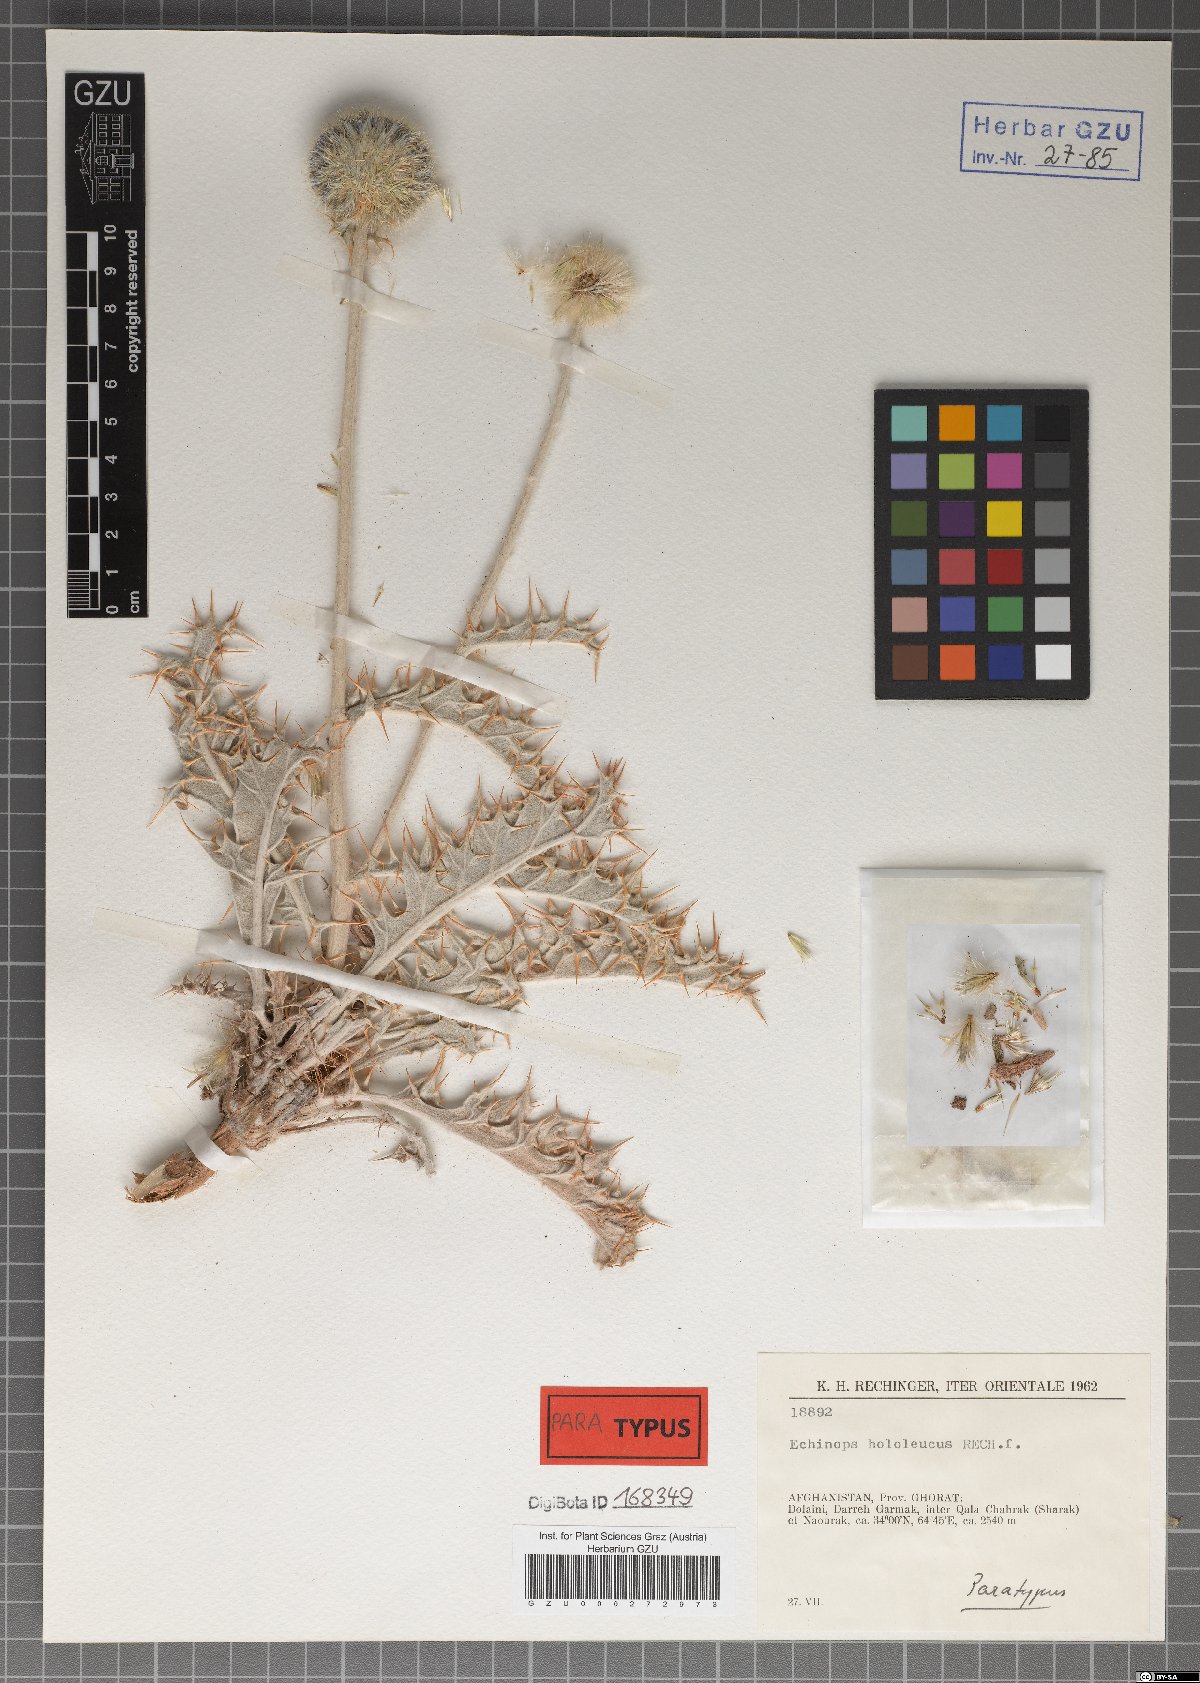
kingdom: Plantae
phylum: Tracheophyta
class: Magnoliopsida
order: Asterales
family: Asteraceae
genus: Echinops
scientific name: Echinops hololeucus
